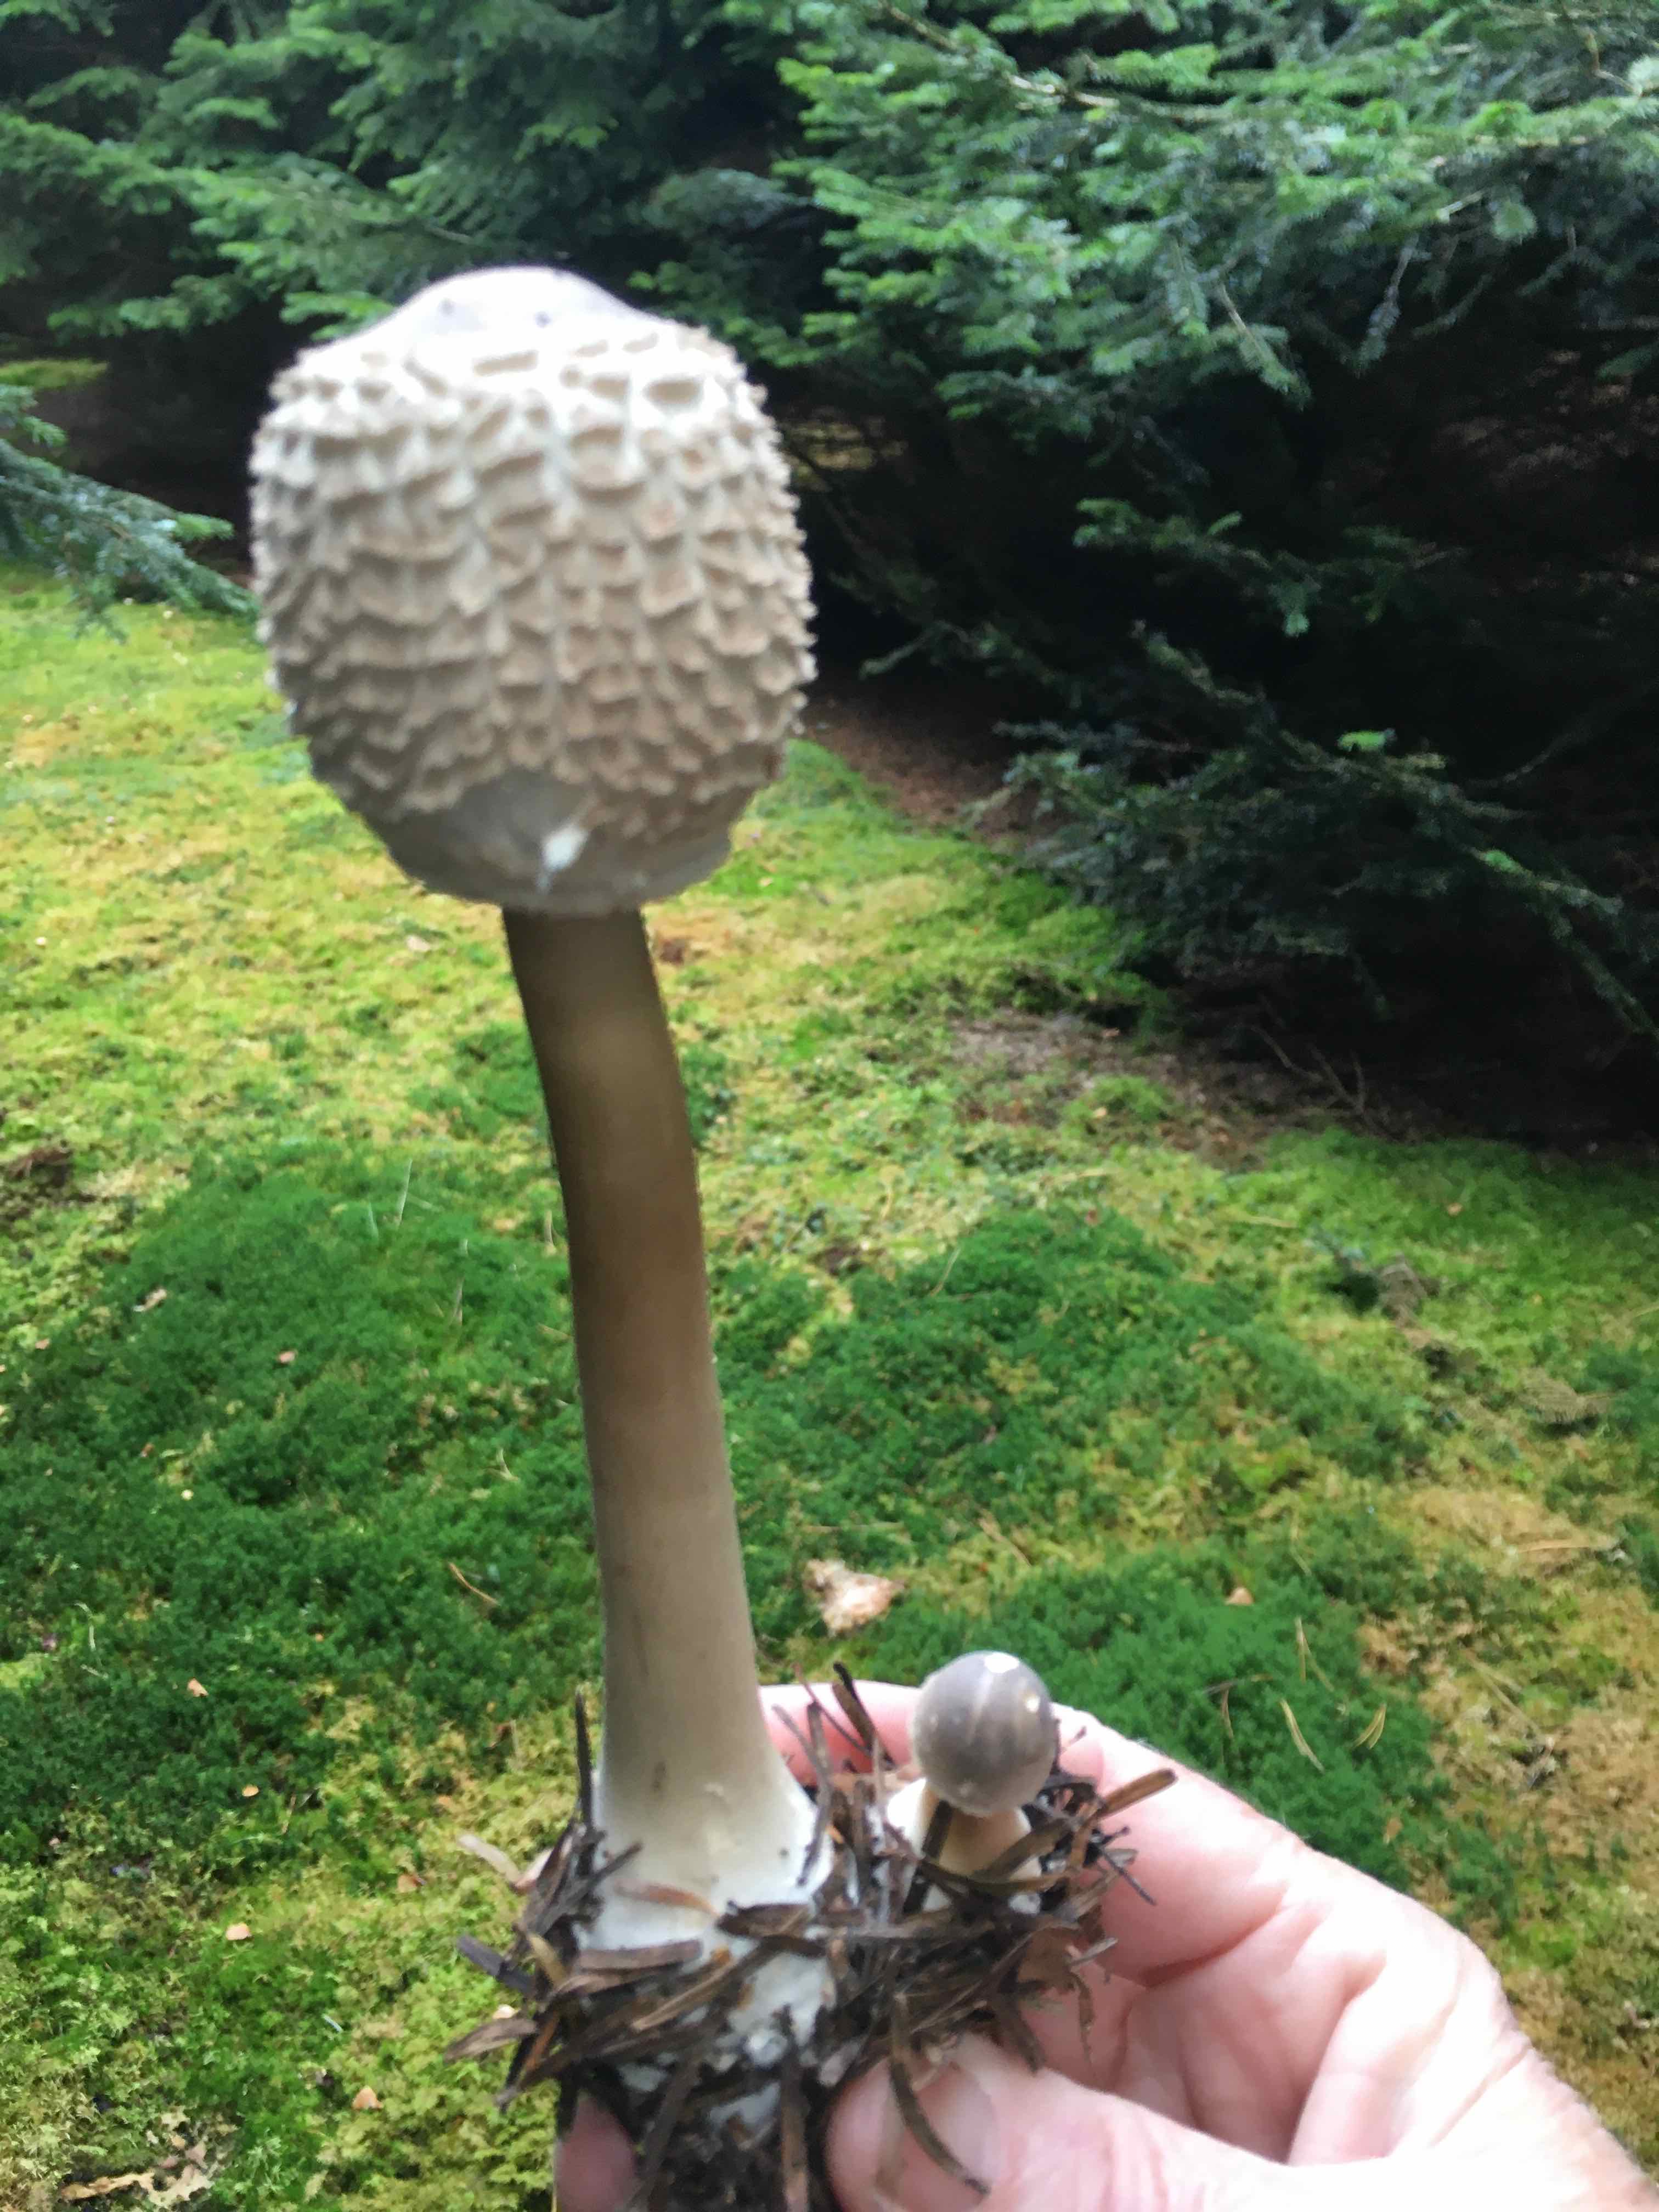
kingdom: Fungi
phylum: Basidiomycota
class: Agaricomycetes
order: Agaricales
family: Agaricaceae
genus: Chlorophyllum
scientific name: Chlorophyllum olivieri
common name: almindelig rabarberhat
